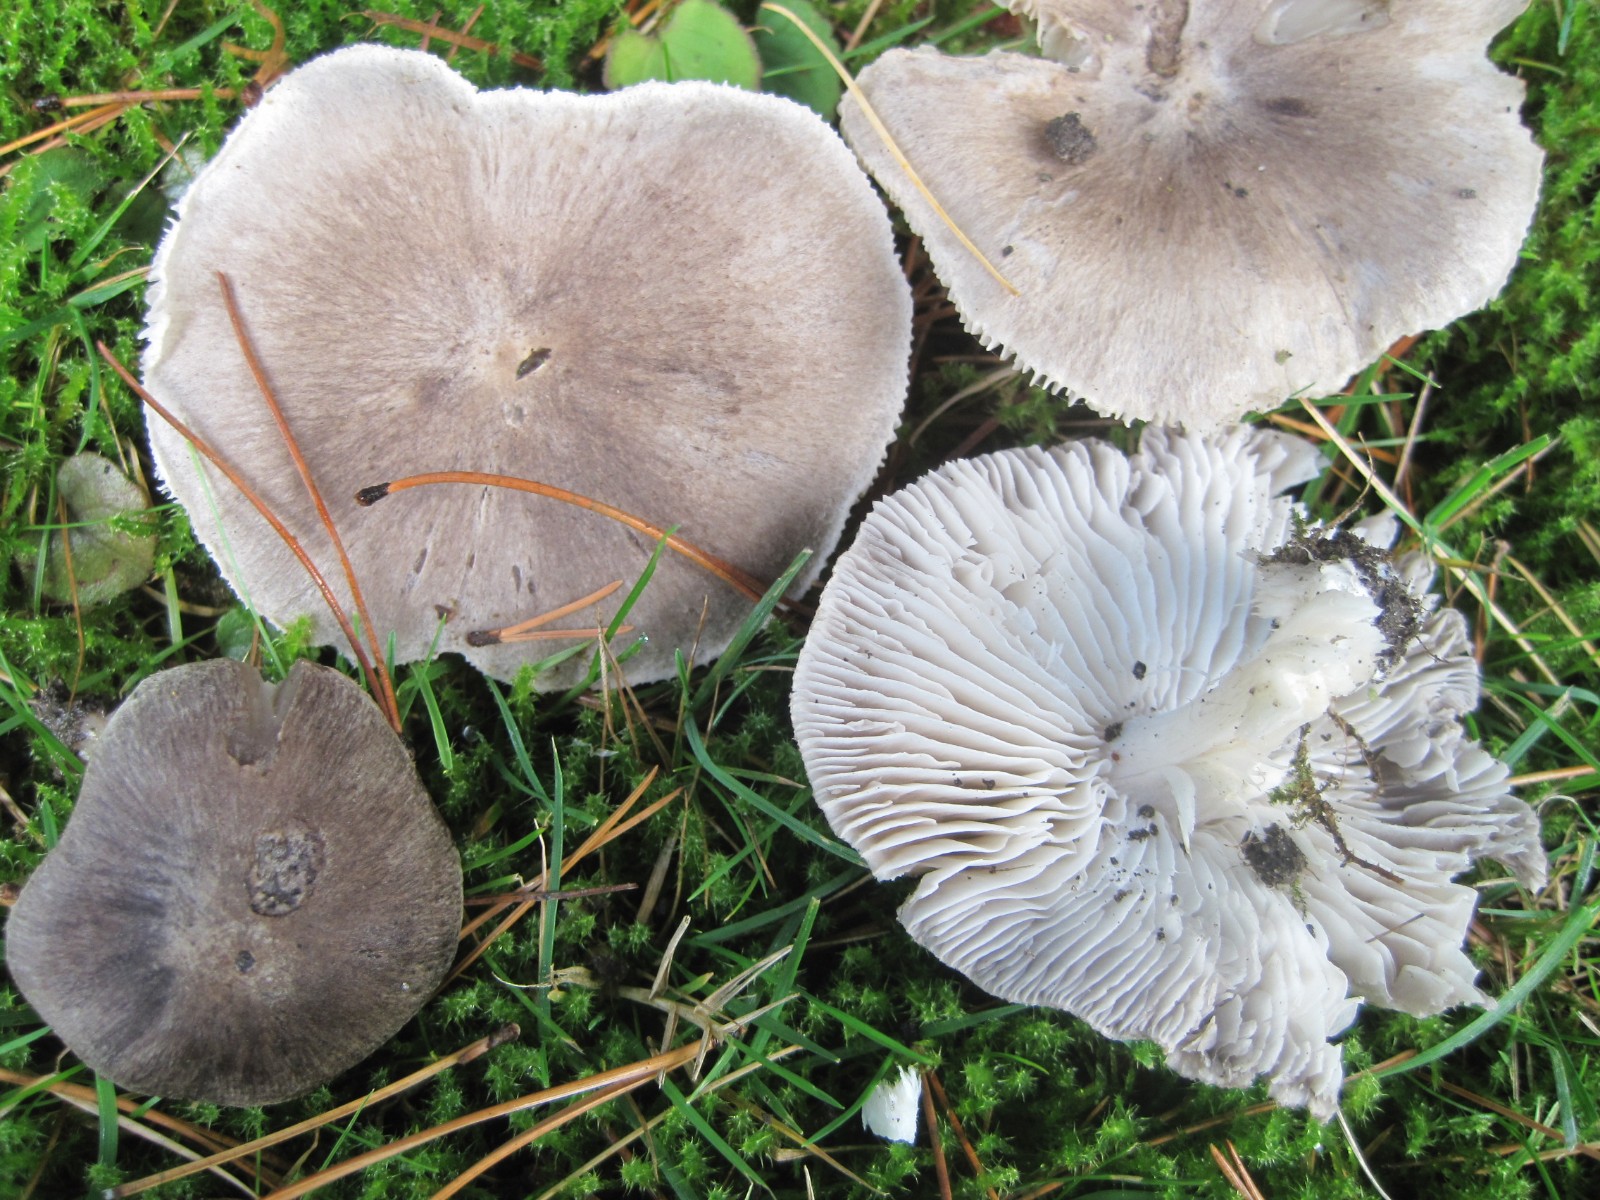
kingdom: Fungi
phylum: Basidiomycota
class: Agaricomycetes
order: Agaricales
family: Tricholomataceae
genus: Tricholoma
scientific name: Tricholoma terreum
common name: jordfarvet ridderhat
